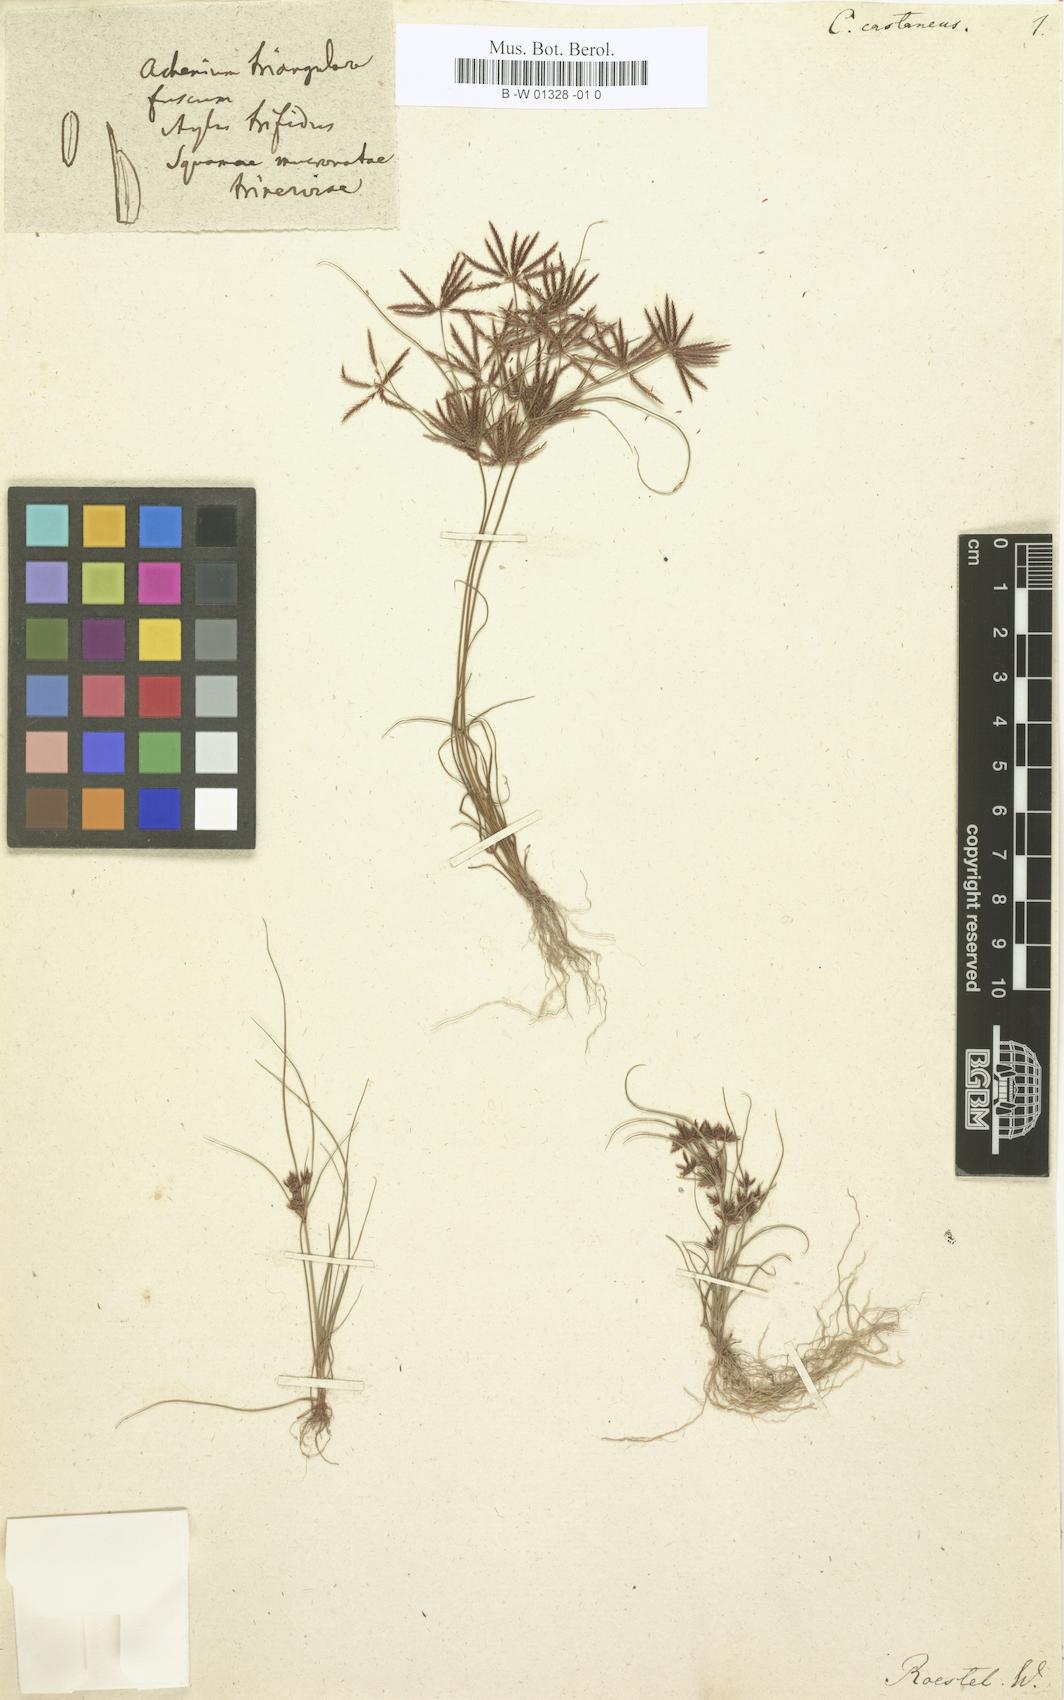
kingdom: Plantae
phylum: Tracheophyta
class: Liliopsida
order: Poales
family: Cyperaceae
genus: Cyperus
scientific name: Cyperus castaneus
